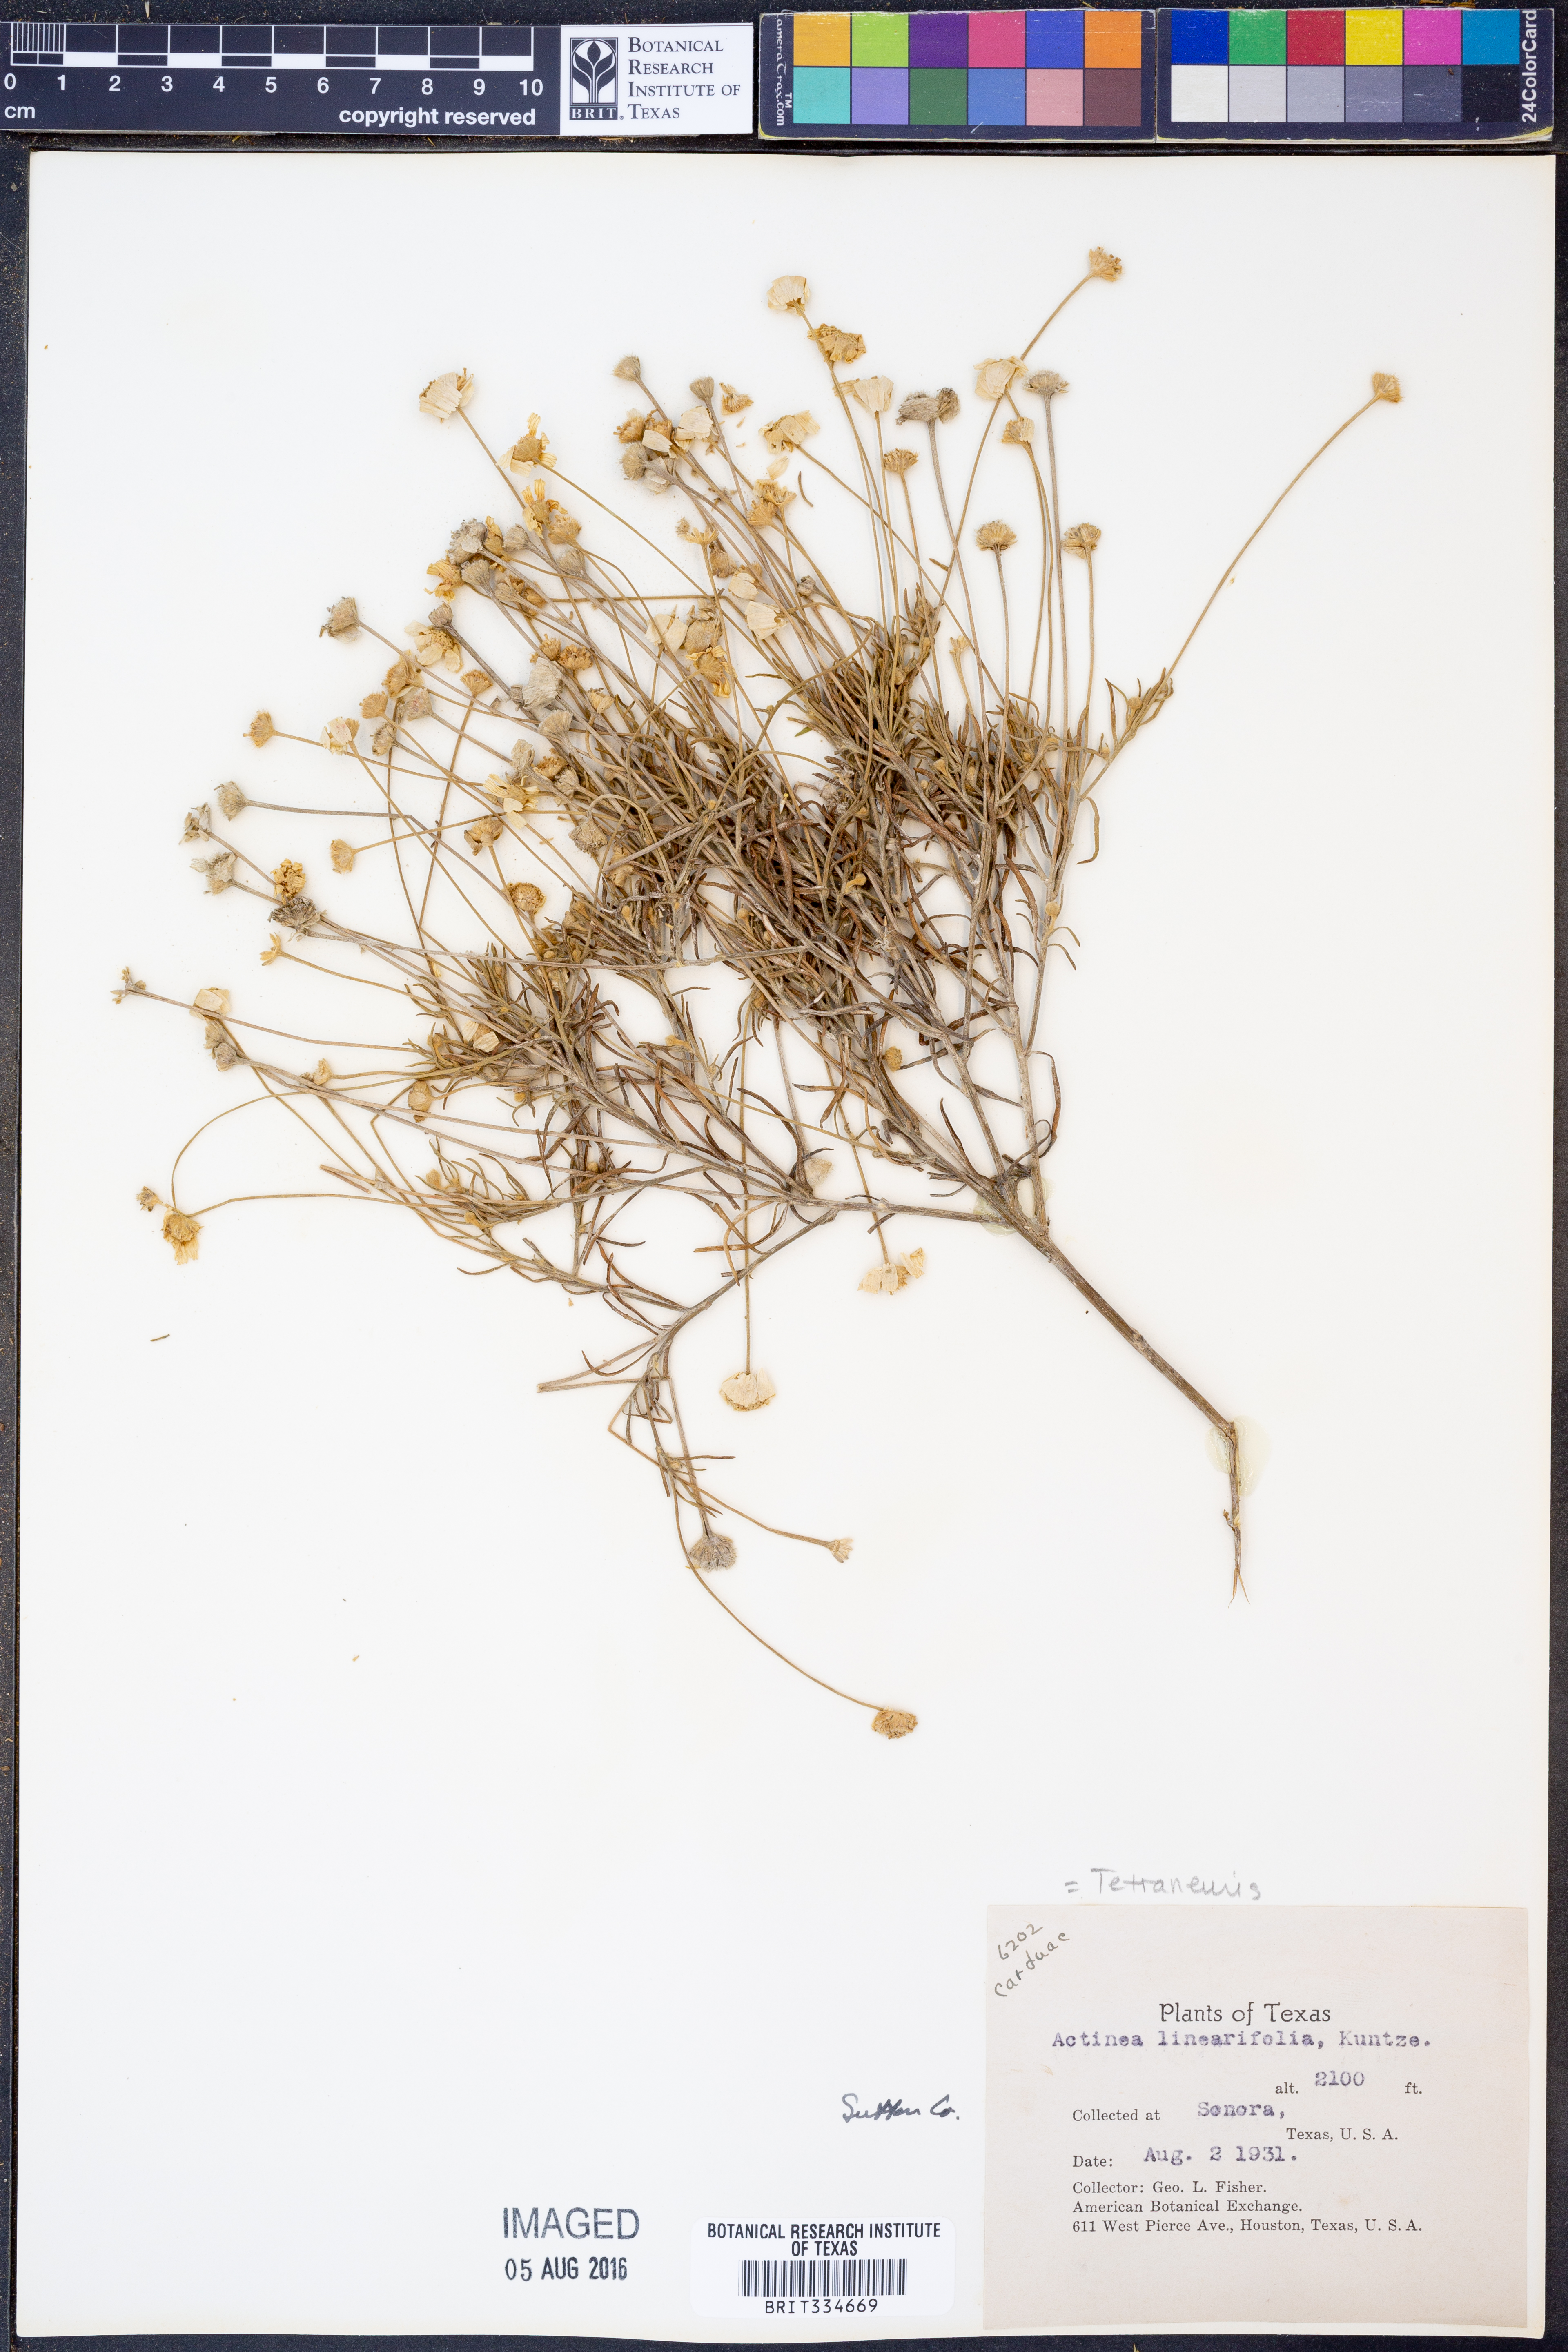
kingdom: Plantae
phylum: Tracheophyta
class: Magnoliopsida
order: Asterales
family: Asteraceae
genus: Tetraneuris
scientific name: Tetraneuris linearifolia
